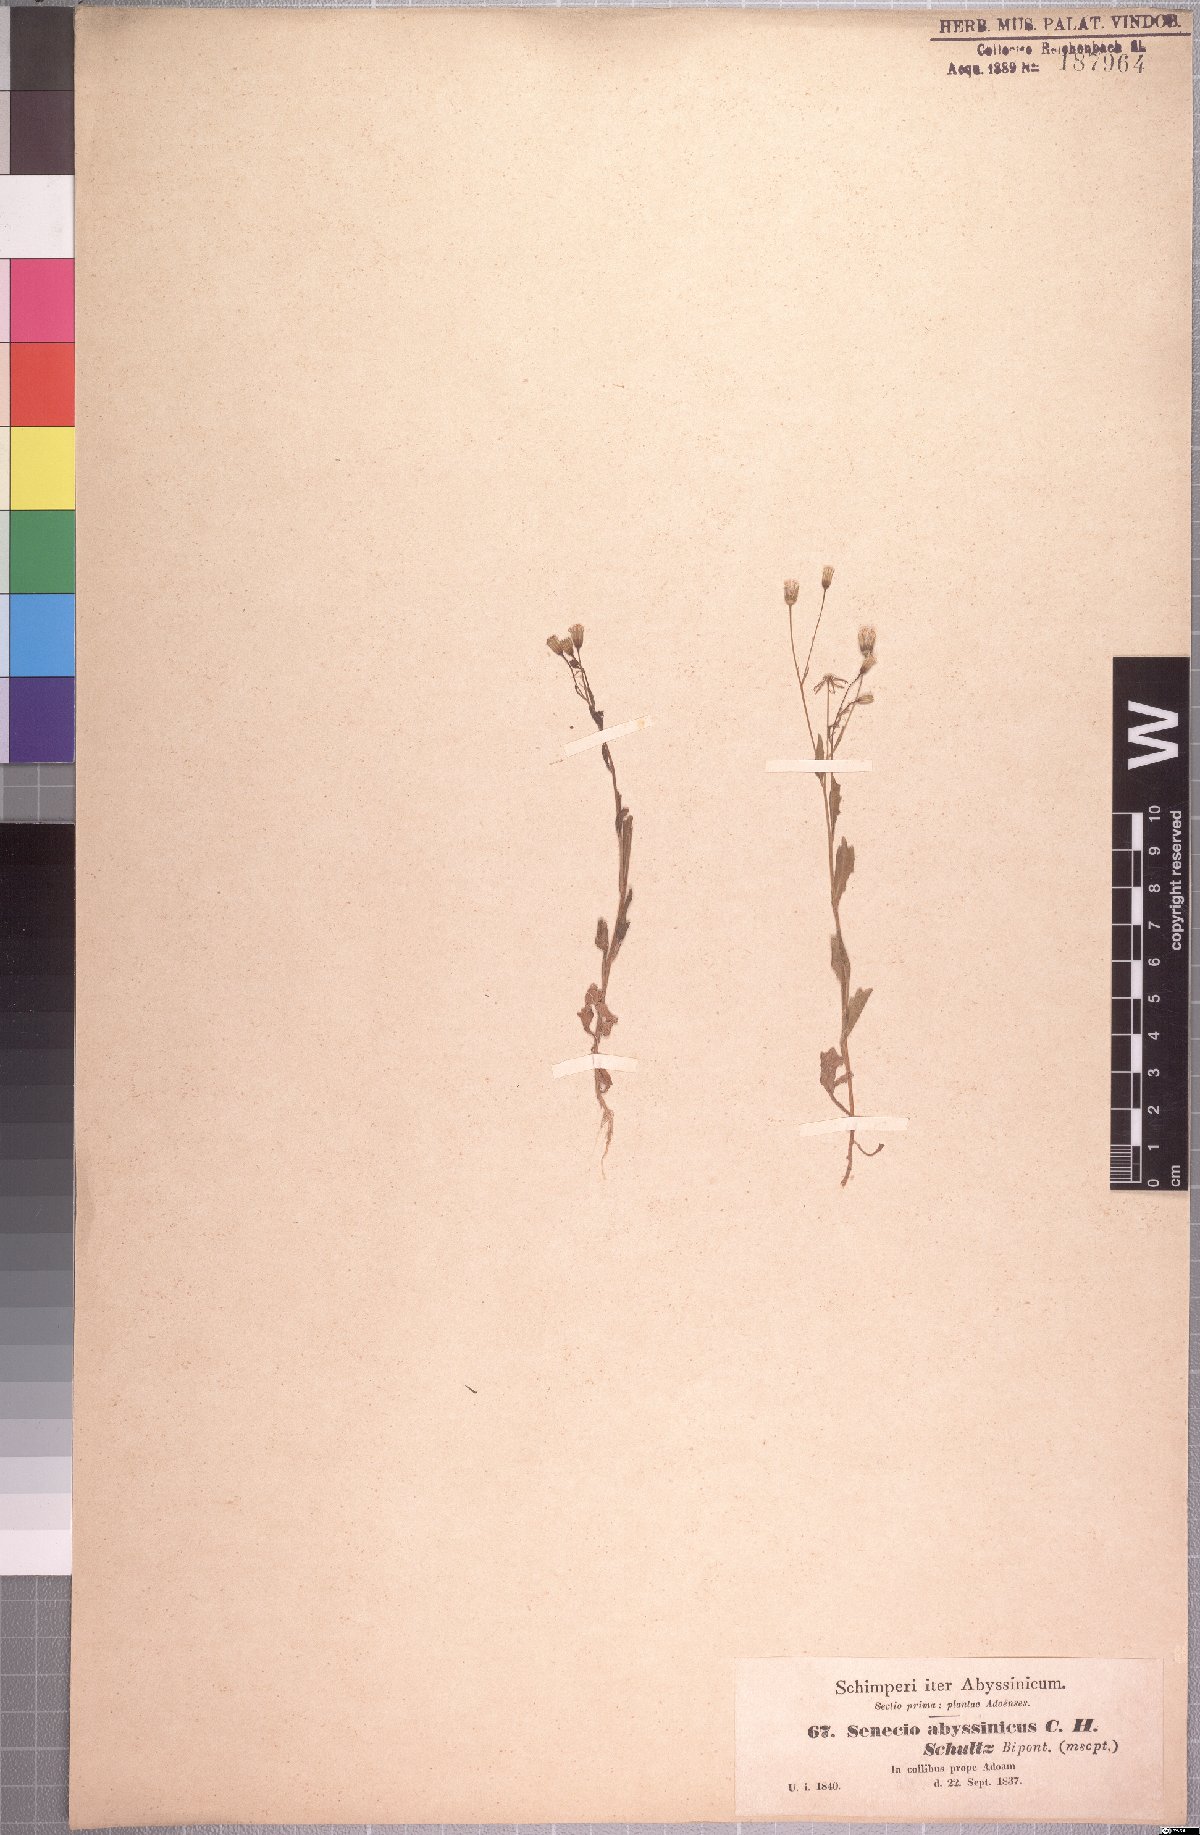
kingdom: Plantae
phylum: Tracheophyta
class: Magnoliopsida
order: Asterales
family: Asteraceae
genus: Emilia
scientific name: Emilia abyssinica
